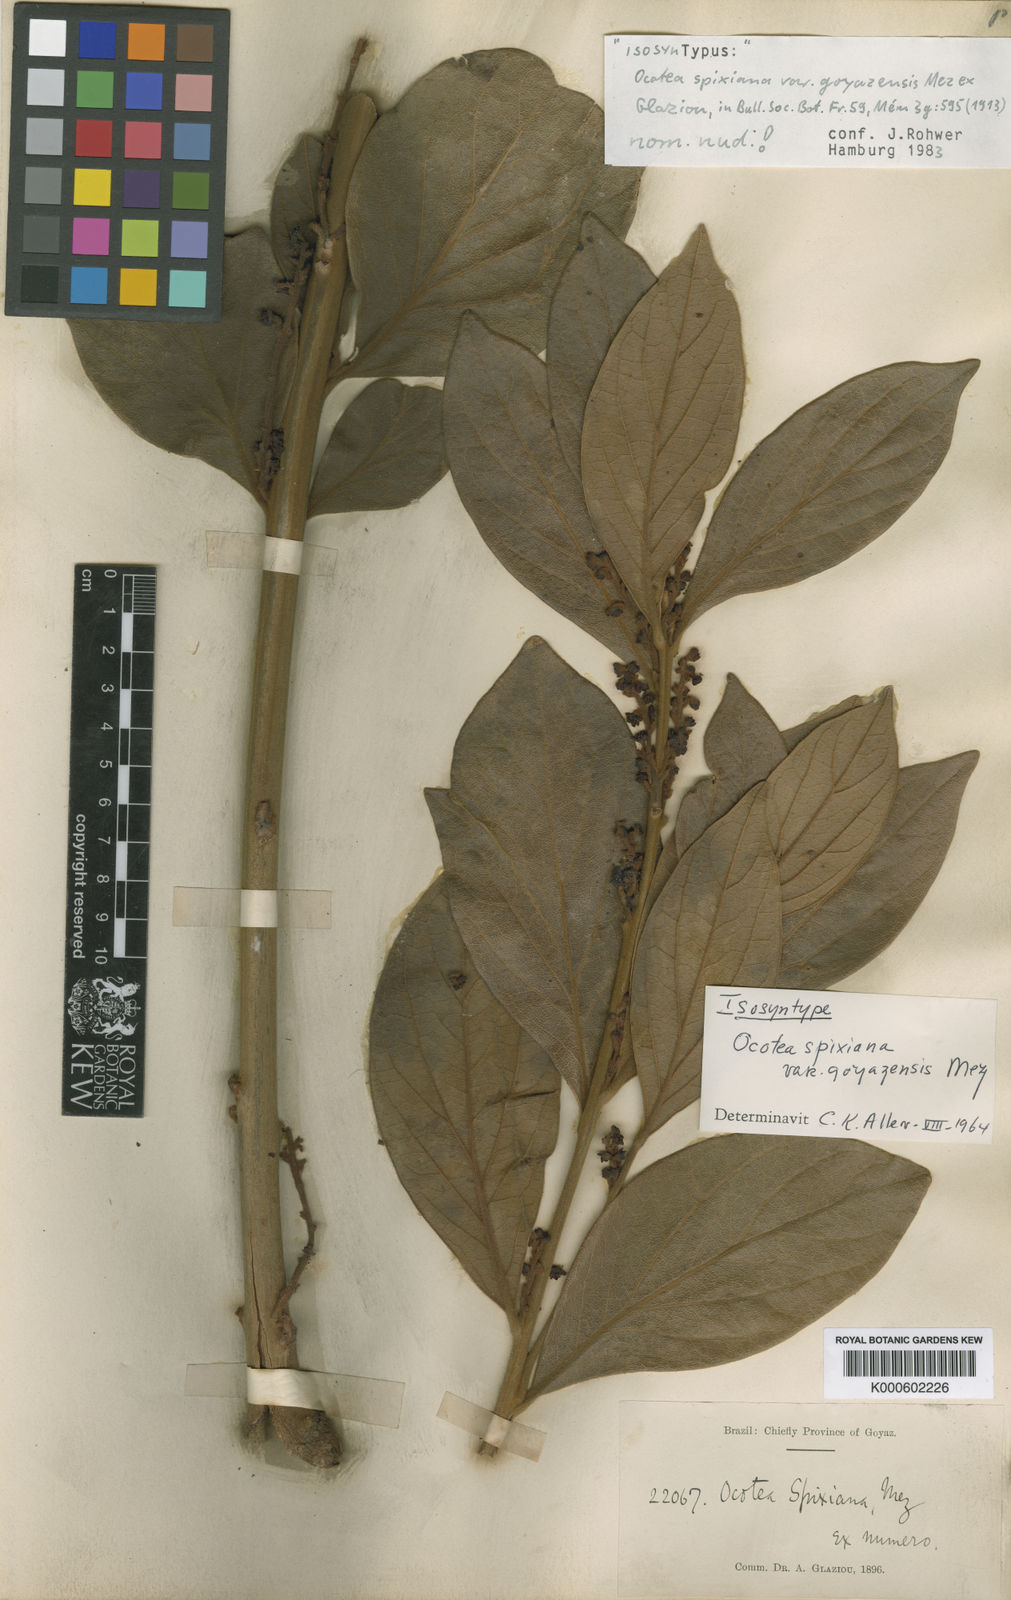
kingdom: Plantae
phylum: Tracheophyta
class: Magnoliopsida
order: Laurales
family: Lauraceae
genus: Ocotea
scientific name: Ocotea spixiana
